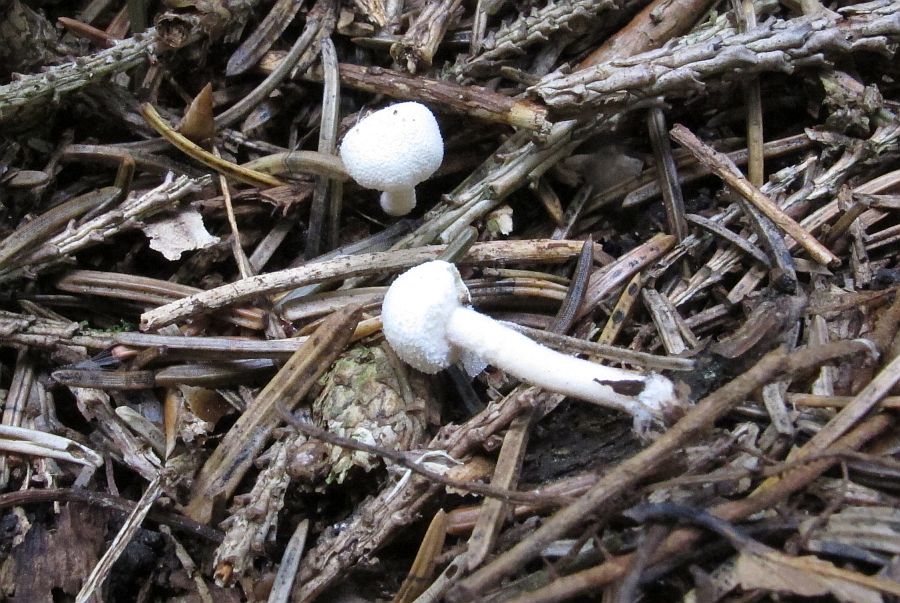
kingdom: Fungi
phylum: Basidiomycota
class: Agaricomycetes
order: Agaricales
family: Agaricaceae
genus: Cystolepiota
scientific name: Cystolepiota seminuda
